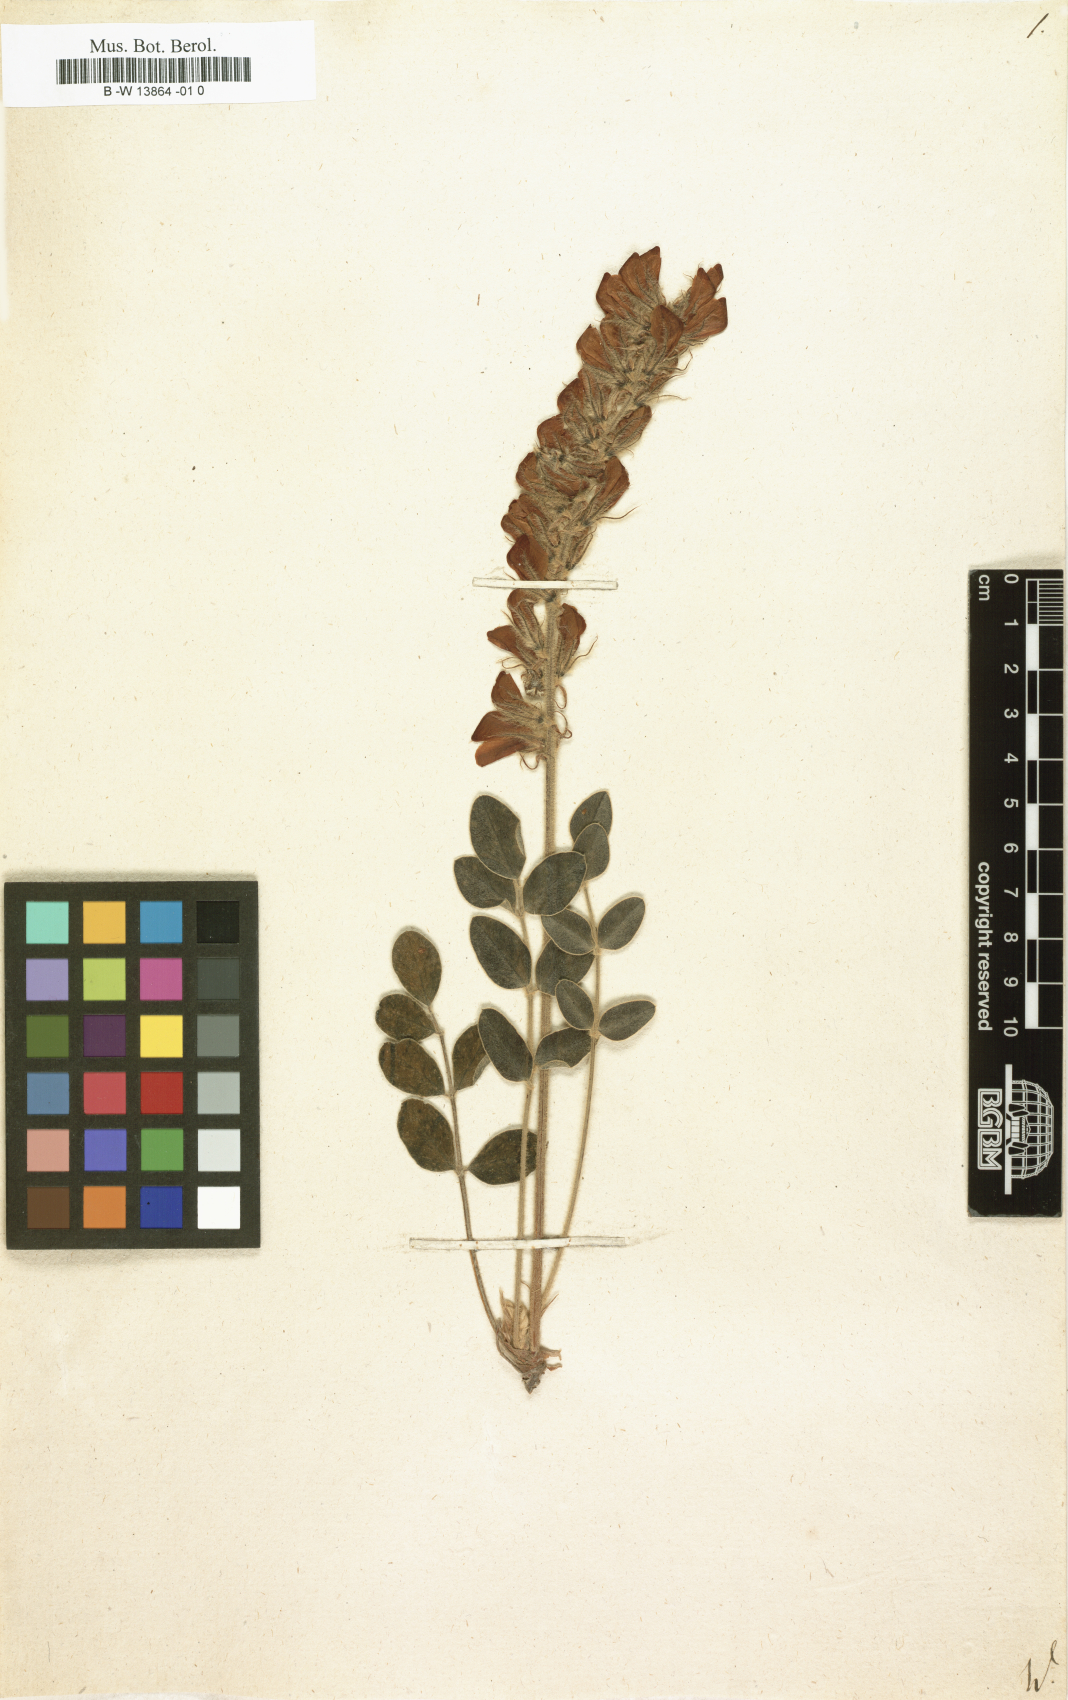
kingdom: Plantae
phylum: Tracheophyta
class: Magnoliopsida
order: Fabales
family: Fabaceae
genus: Hedysarum
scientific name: Hedysarum
